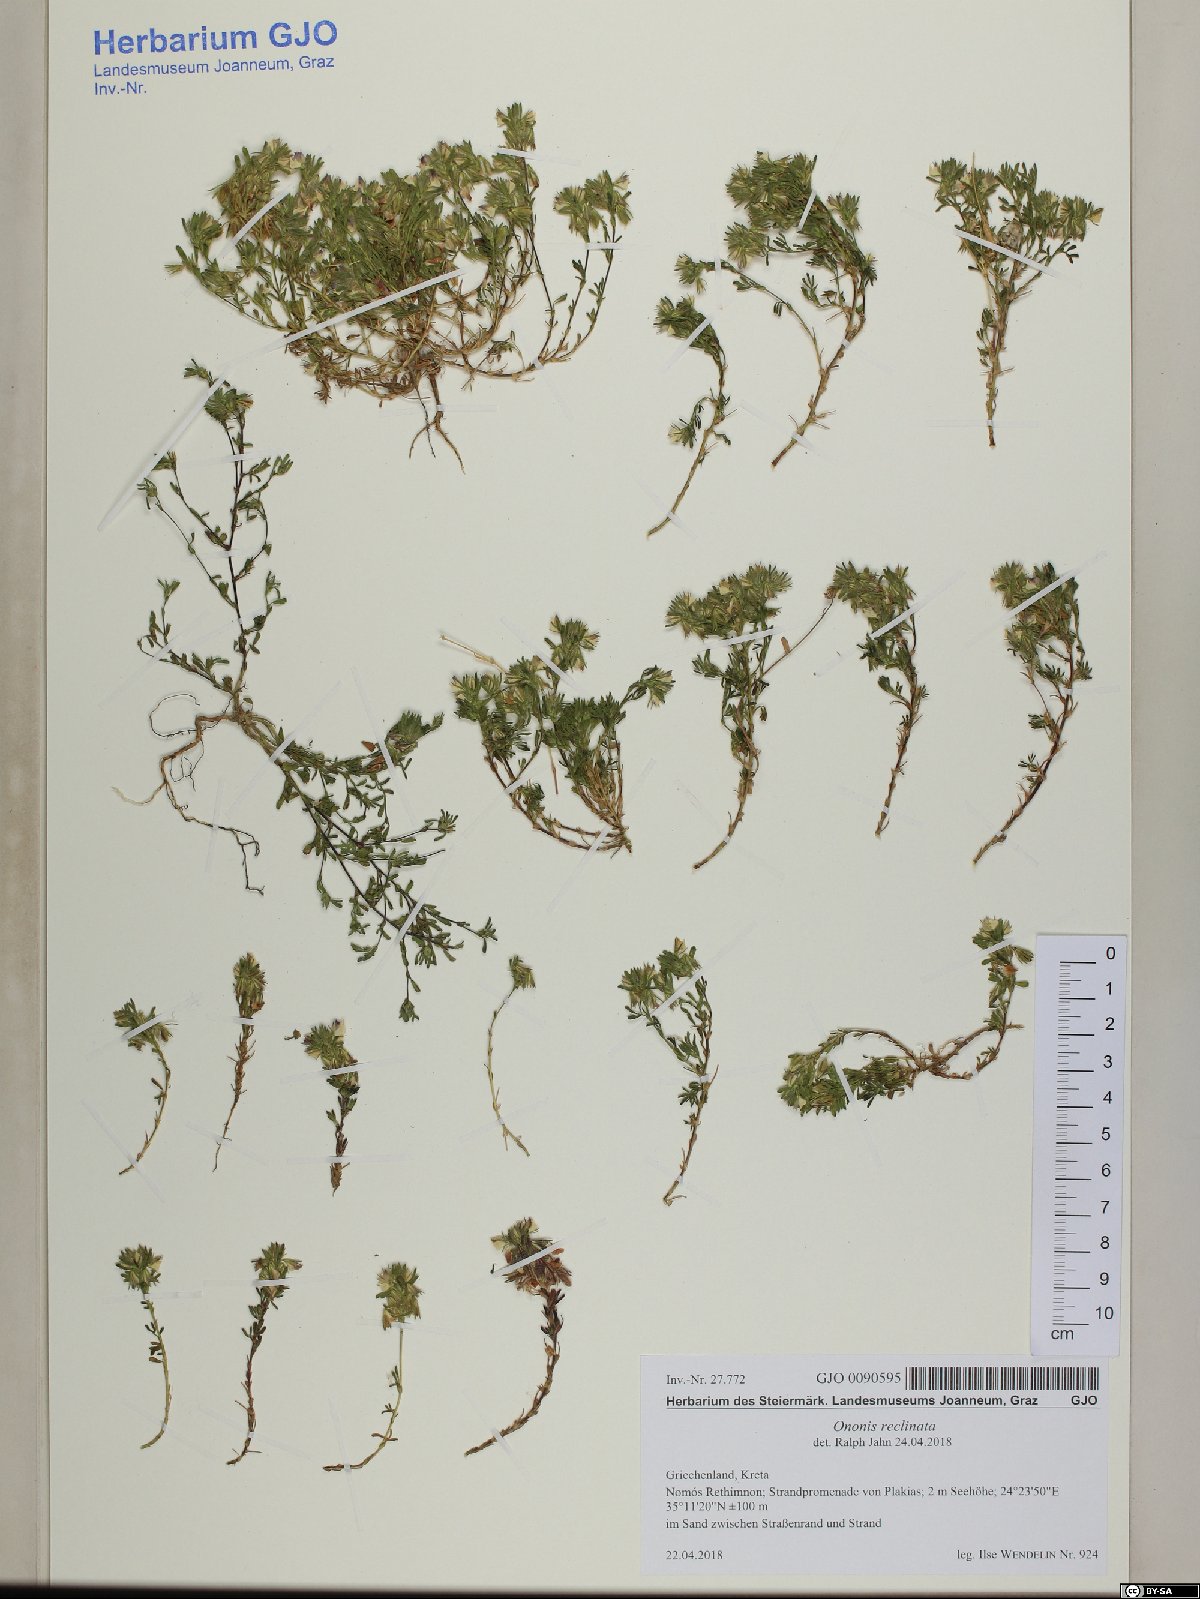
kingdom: Plantae
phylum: Tracheophyta
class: Magnoliopsida
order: Fabales
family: Fabaceae
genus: Ononis
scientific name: Ononis reclinata
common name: Small restharrow
